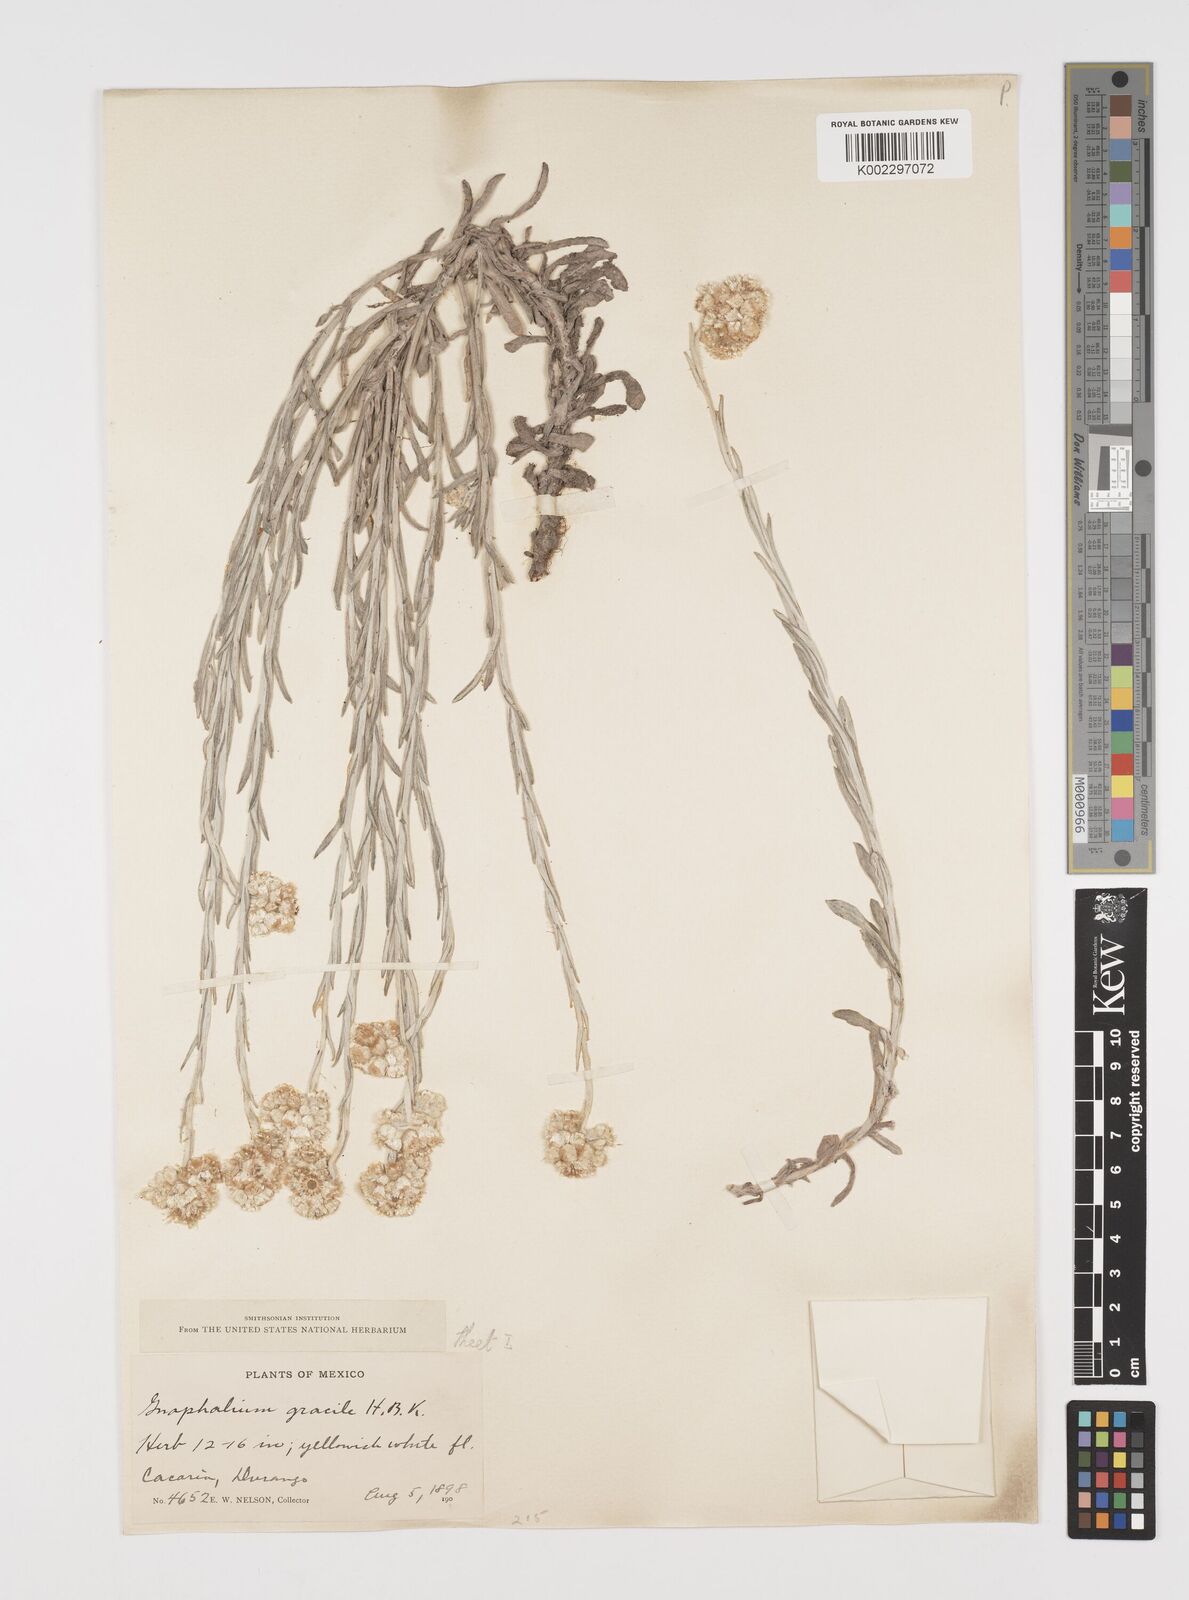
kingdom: Plantae
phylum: Tracheophyta
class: Magnoliopsida
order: Asterales
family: Asteraceae
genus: Pseudognaphalium
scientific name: Pseudognaphalium
